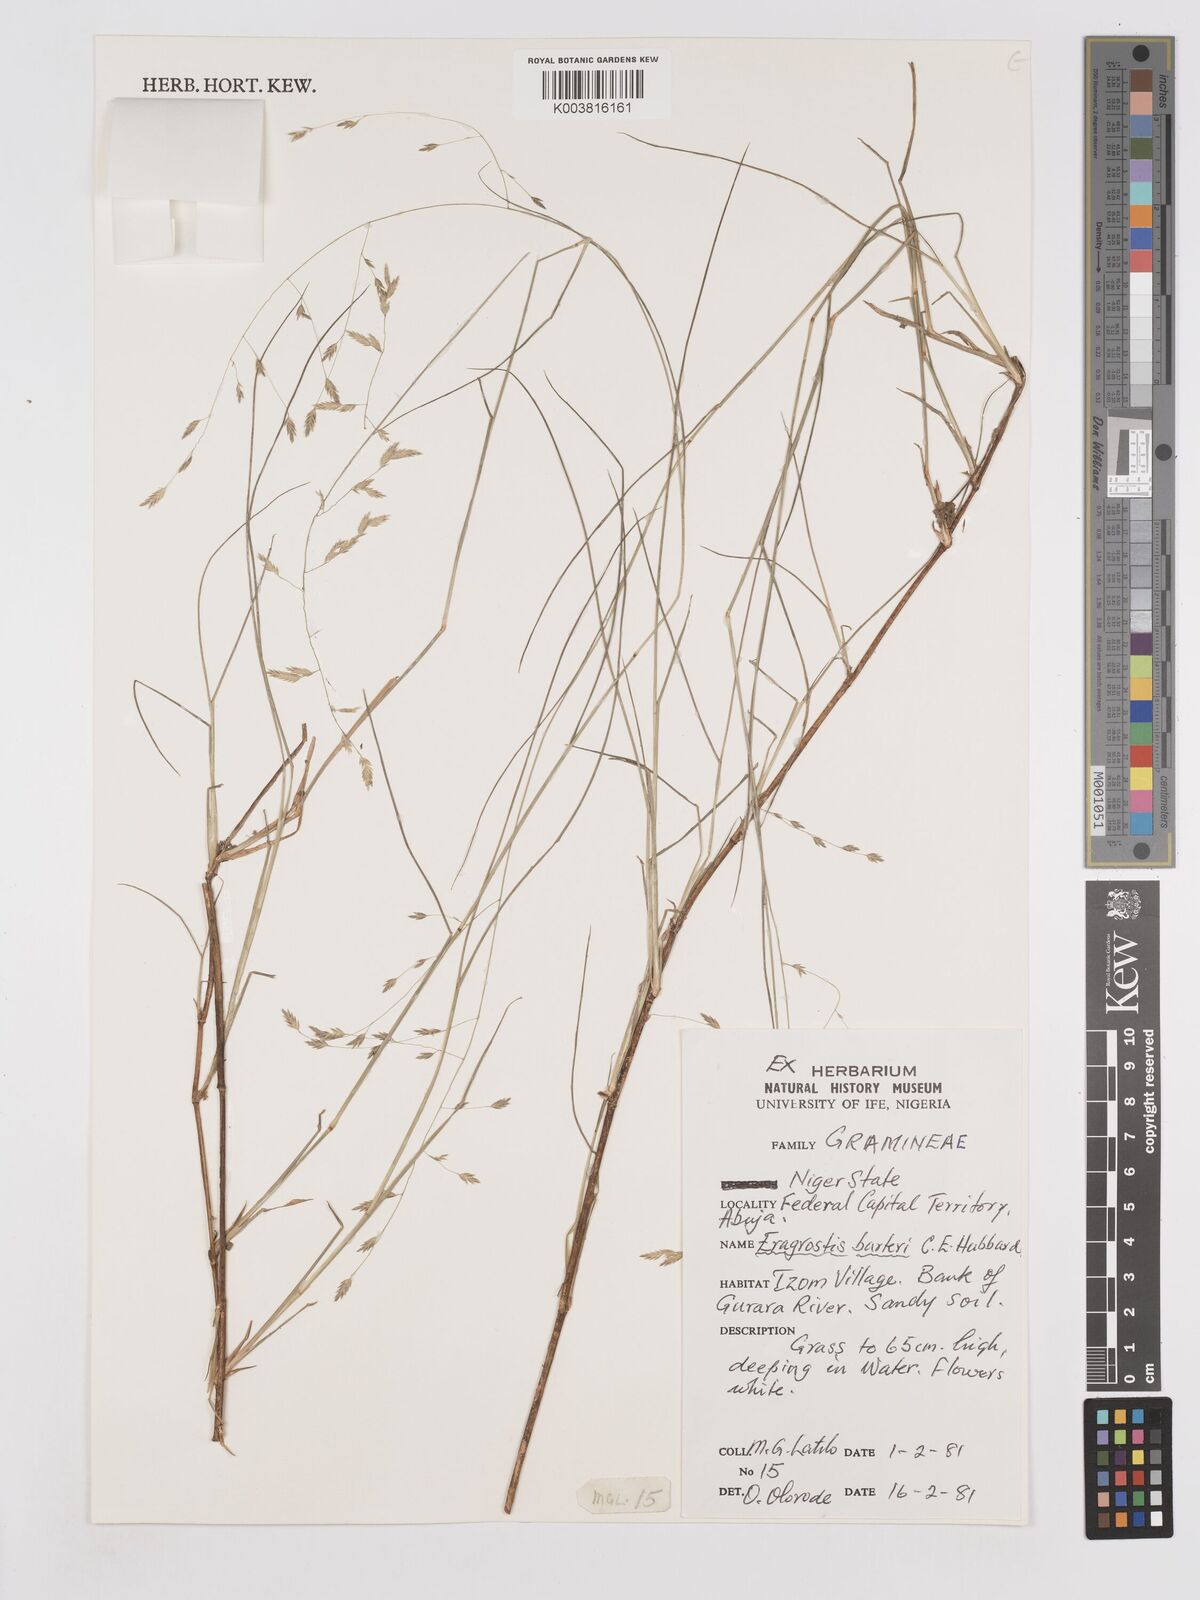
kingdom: Plantae
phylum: Tracheophyta
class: Liliopsida
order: Poales
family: Poaceae
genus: Eragrostis
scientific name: Eragrostis barteri
